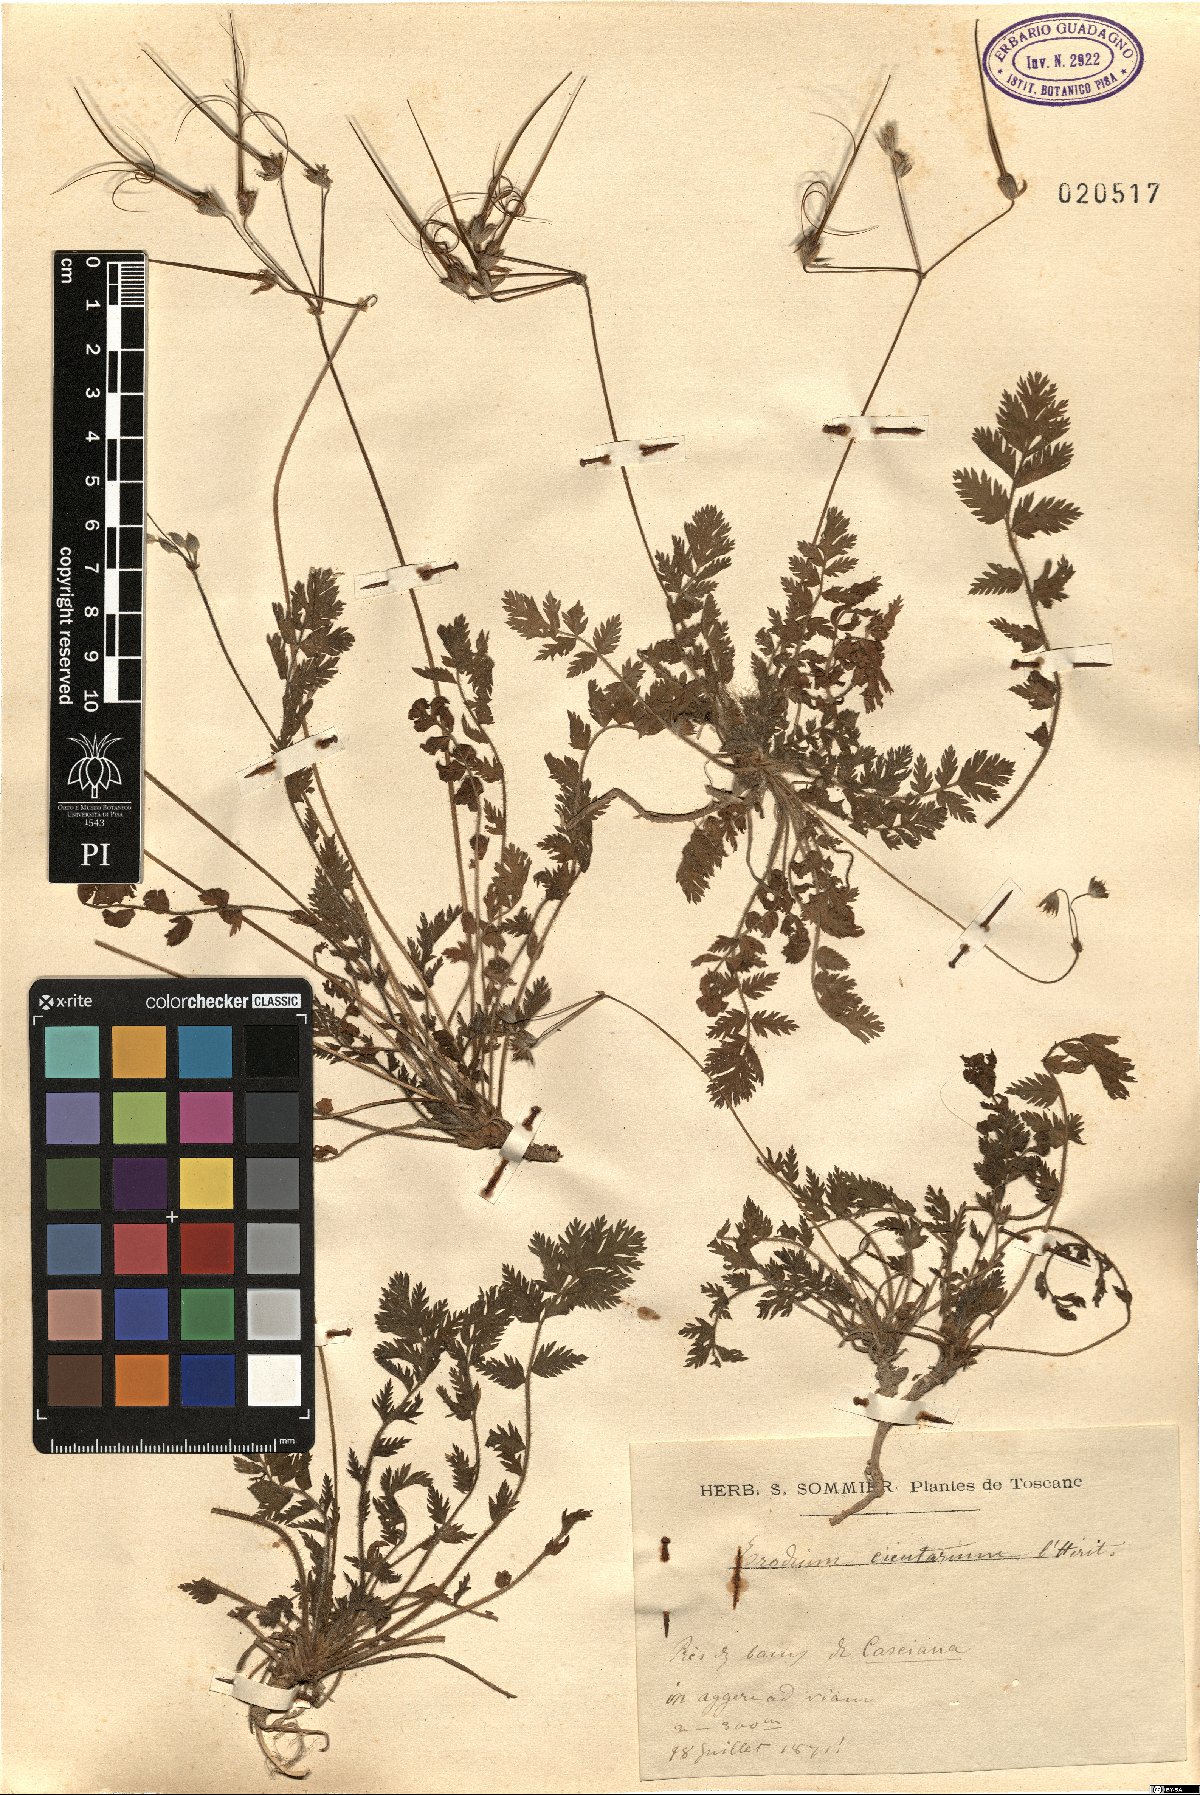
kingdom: Plantae
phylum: Tracheophyta
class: Magnoliopsida
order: Geraniales
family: Geraniaceae
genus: Erodium
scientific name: Erodium cicutarium
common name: Common stork's-bill
